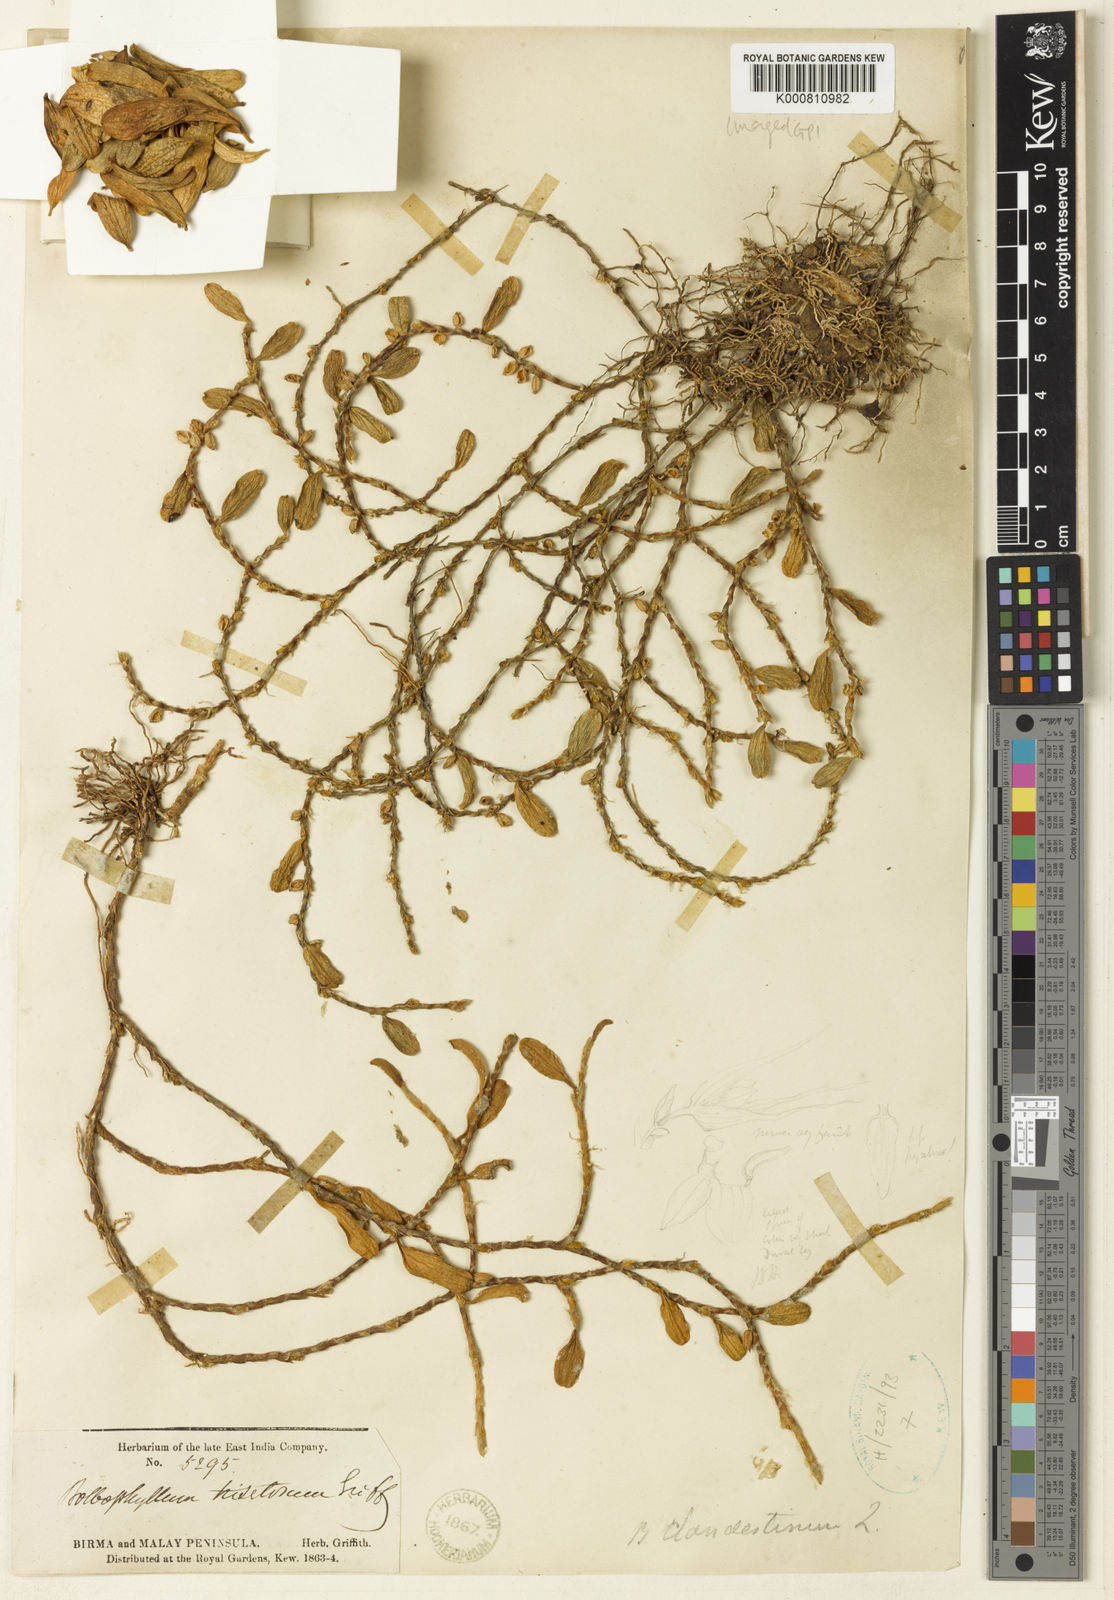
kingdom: Plantae
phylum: Tracheophyta
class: Liliopsida
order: Asparagales
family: Orchidaceae
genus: Bulbophyllum
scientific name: Bulbophyllum clandestinum
